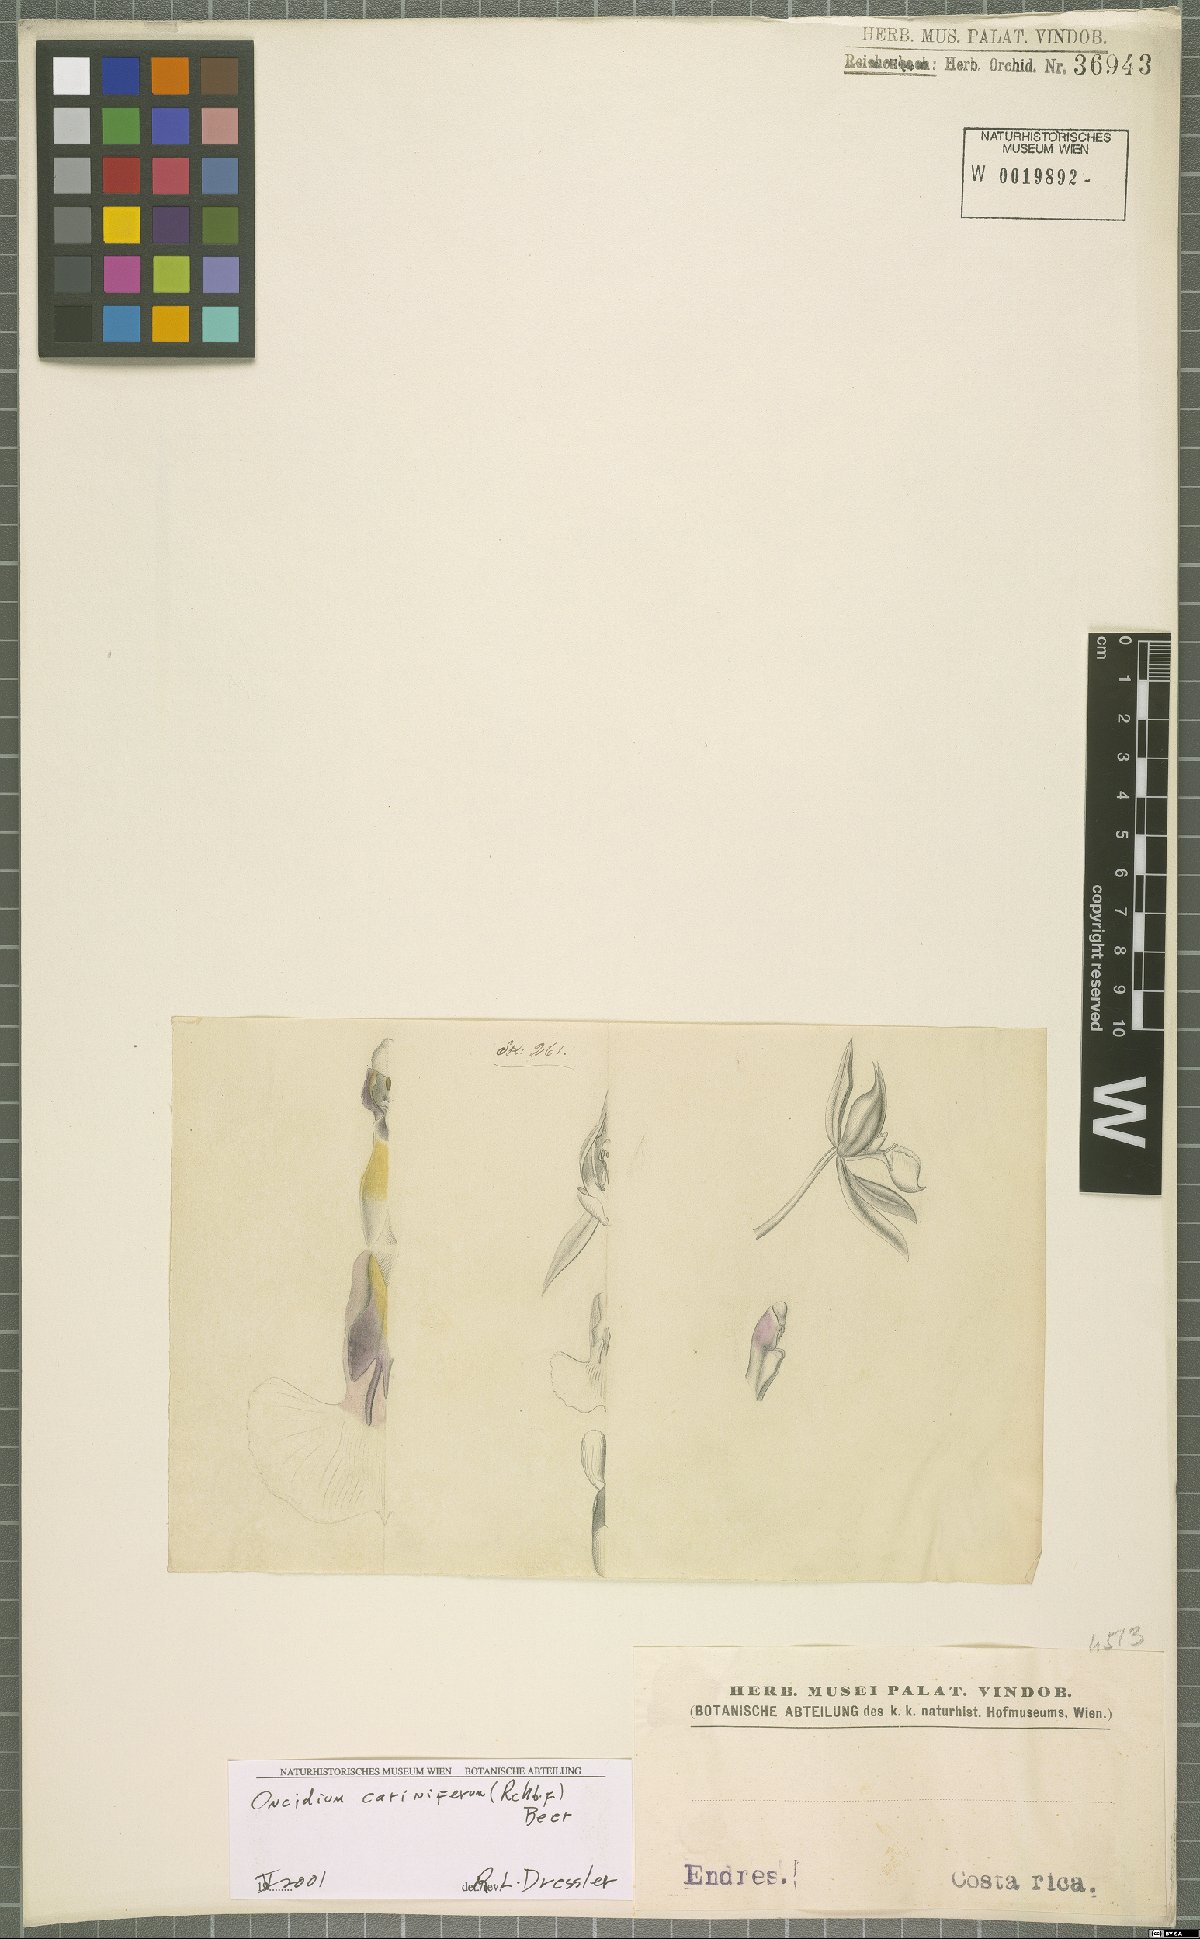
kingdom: Plantae
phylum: Tracheophyta
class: Liliopsida
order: Asparagales
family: Orchidaceae
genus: Oncidium
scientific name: Oncidium cariniferum
